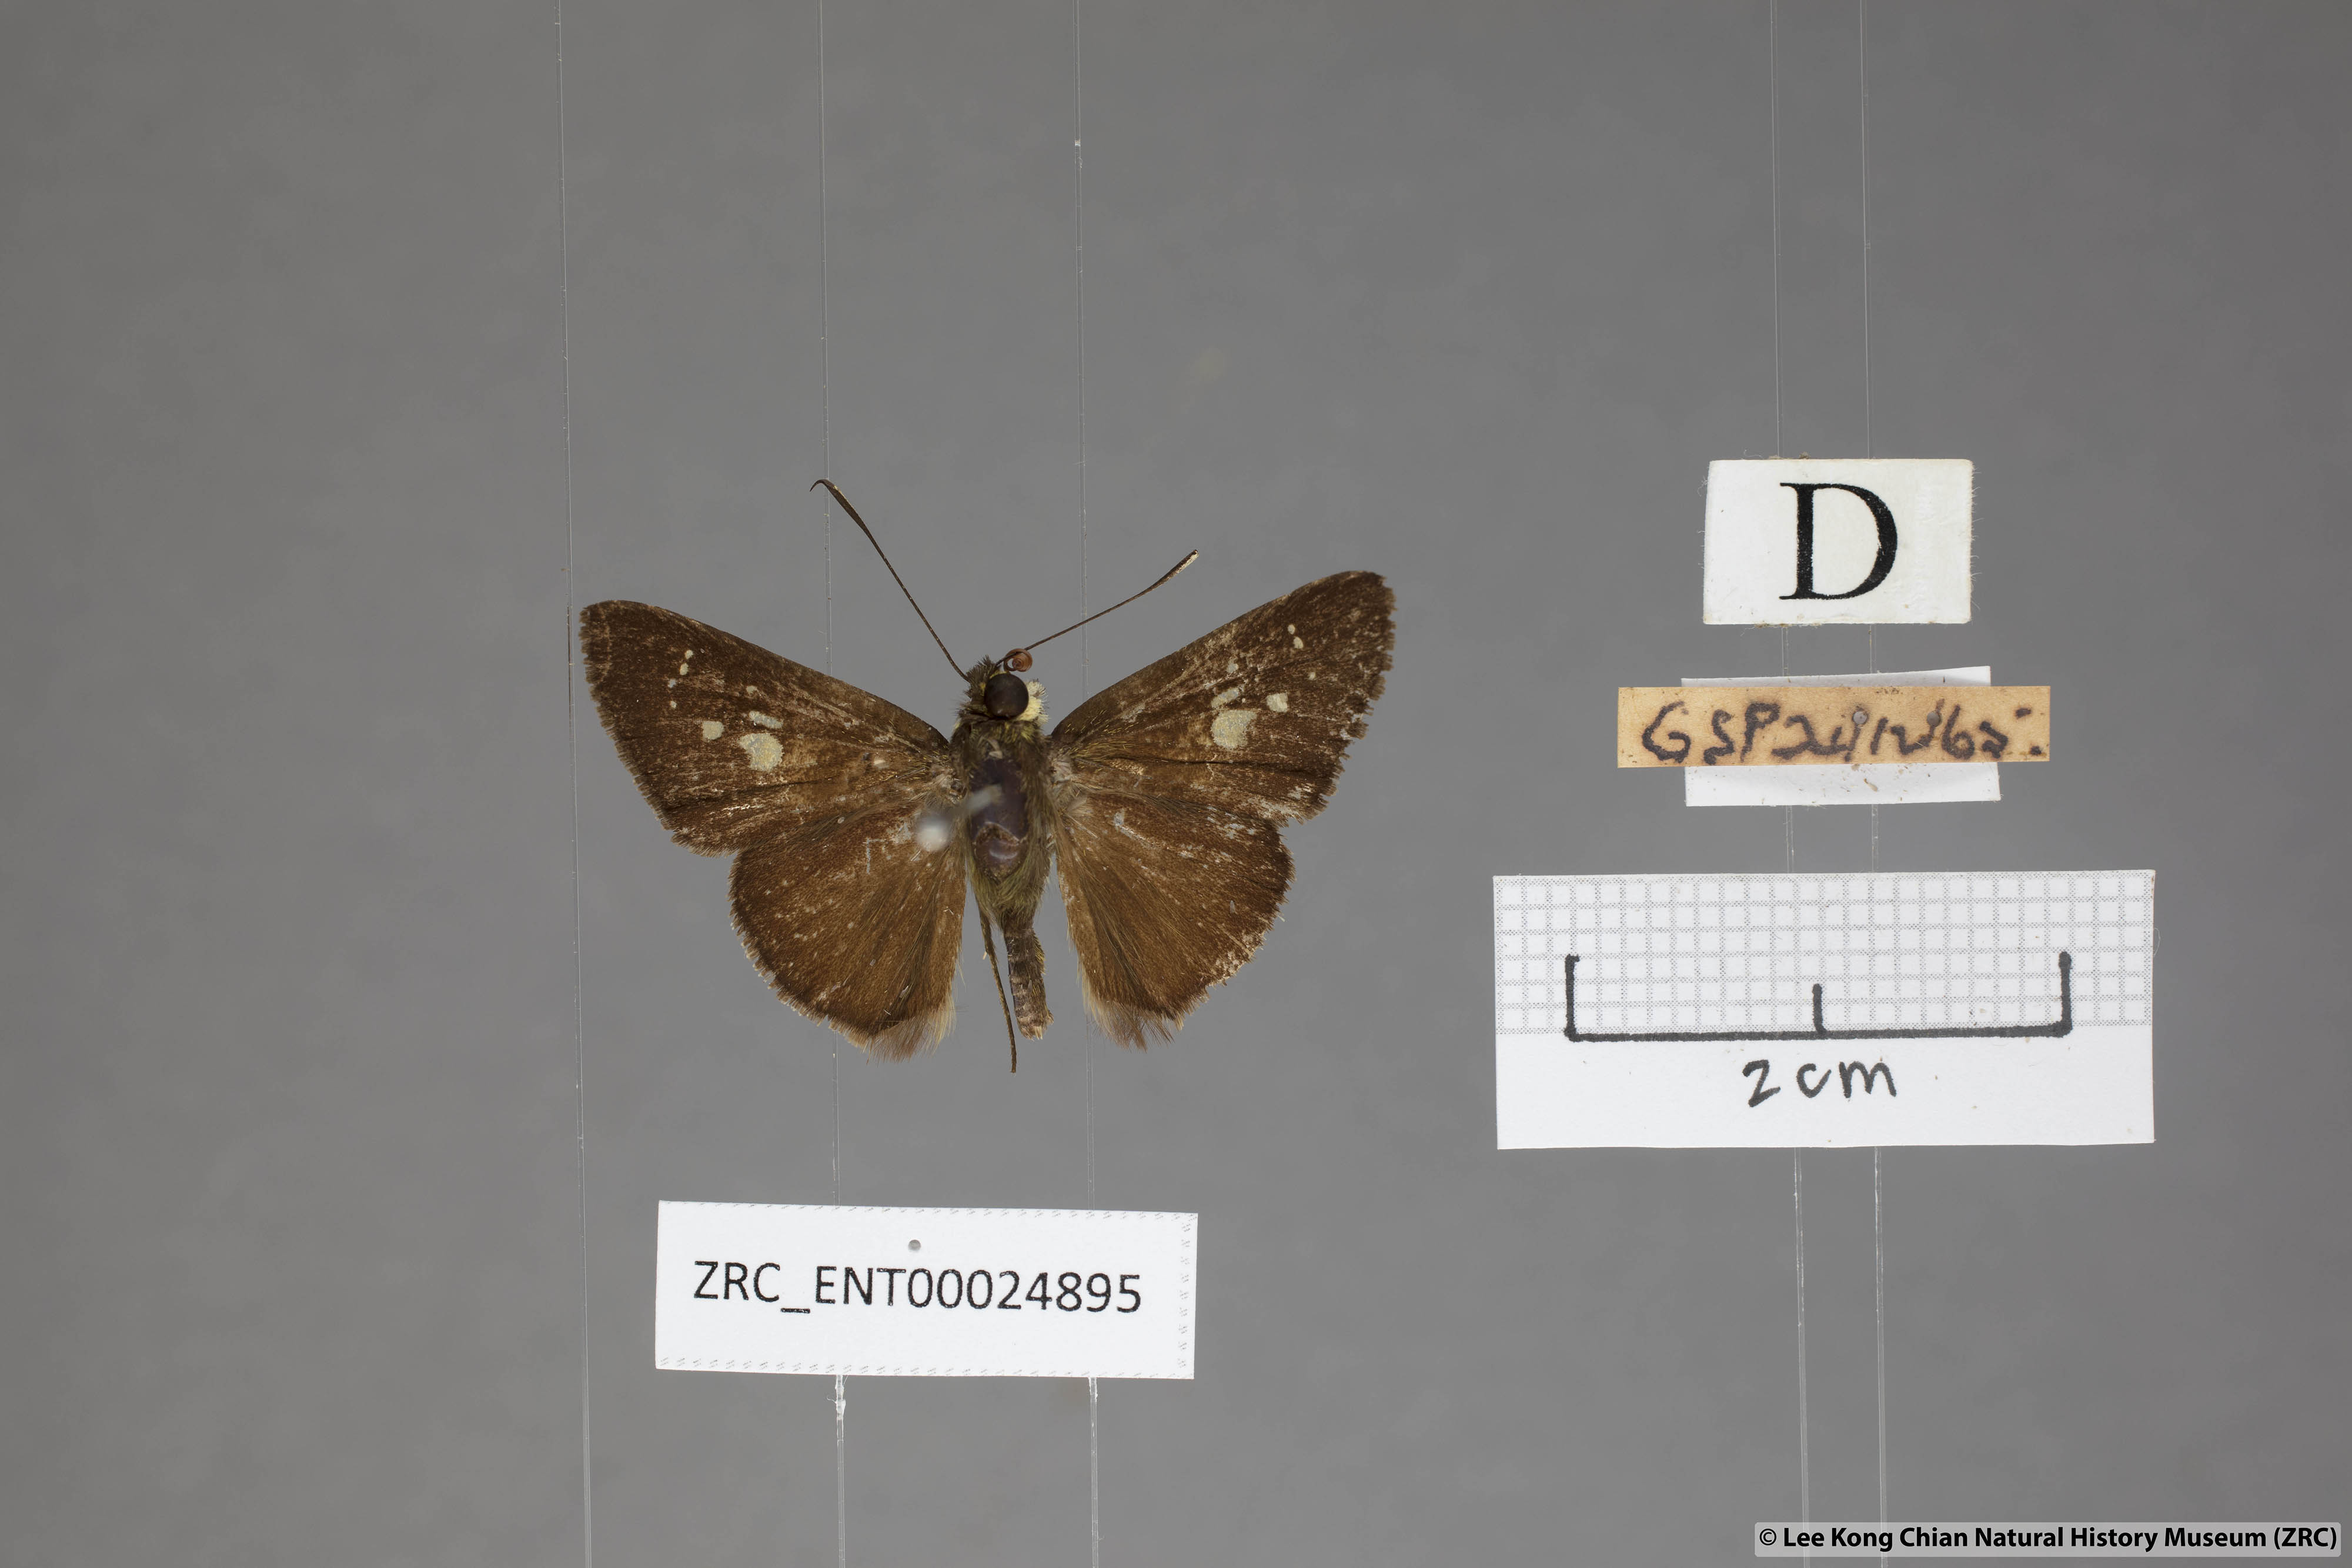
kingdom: Animalia
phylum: Arthropoda
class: Insecta
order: Lepidoptera
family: Hesperiidae
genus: Isma
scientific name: Isma
